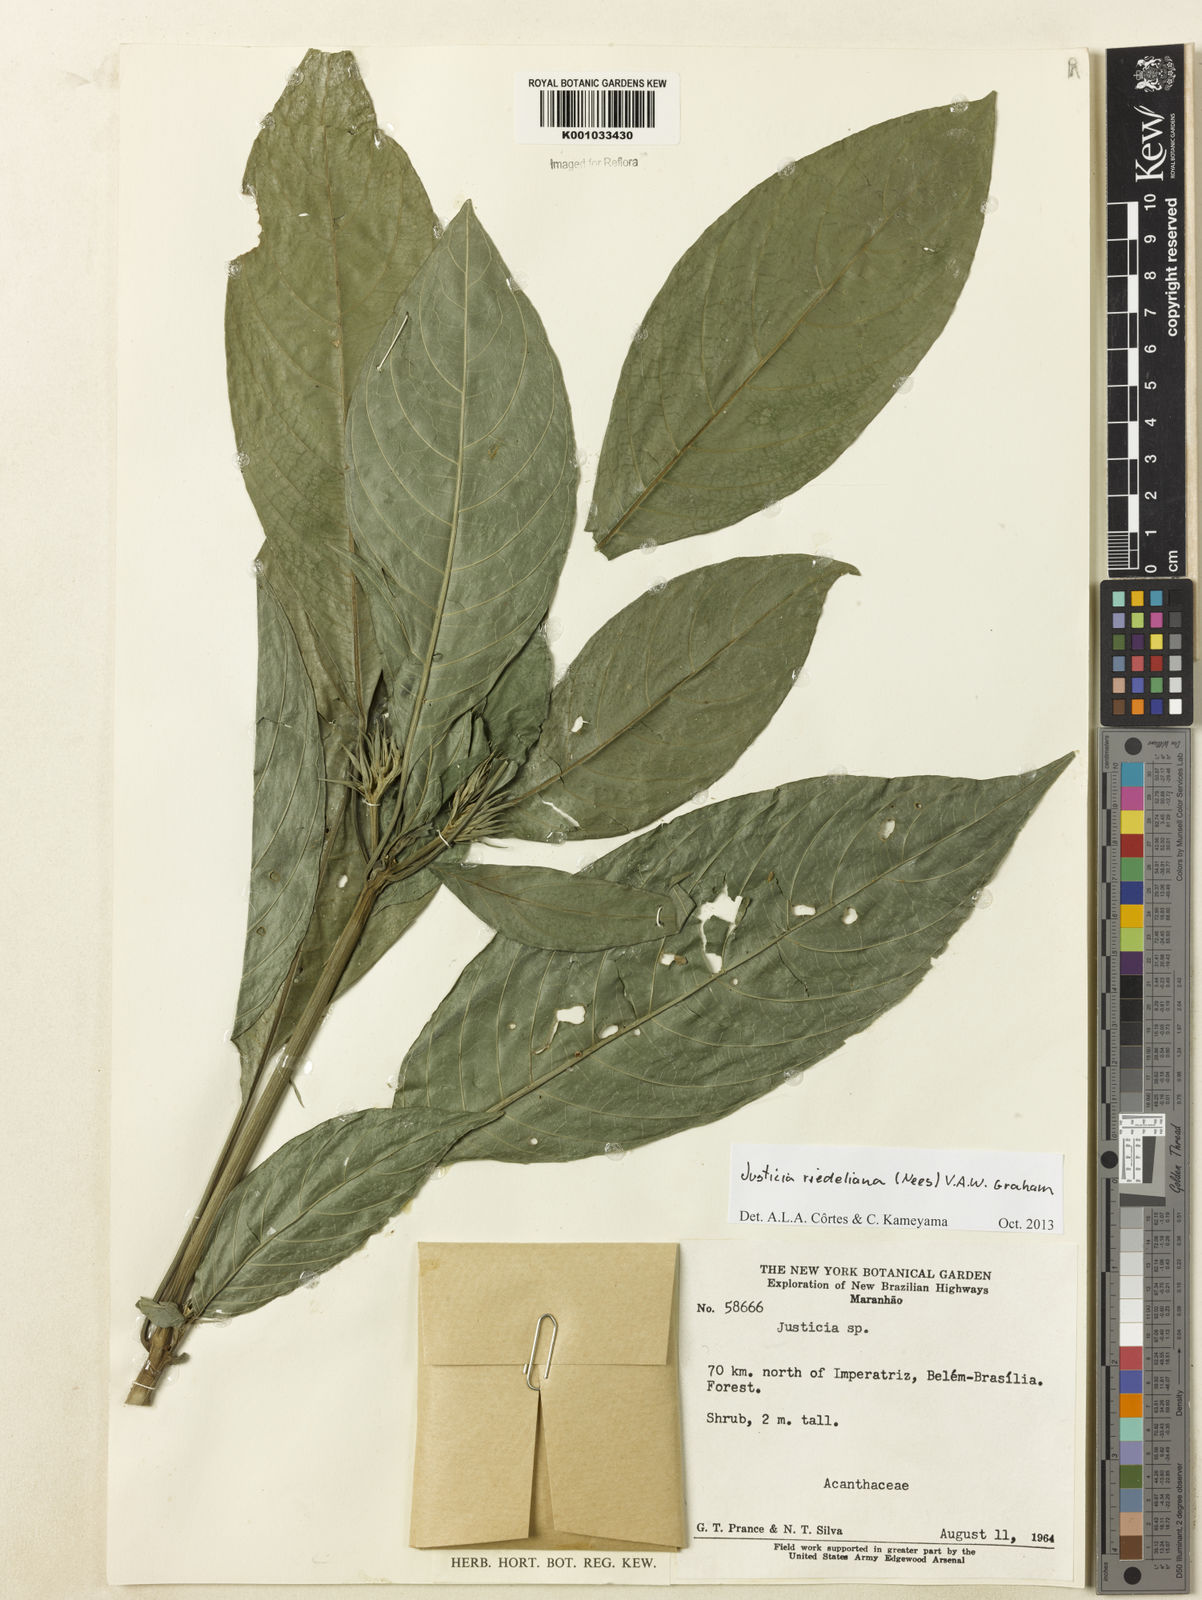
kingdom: Plantae
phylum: Tracheophyta
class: Magnoliopsida
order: Lamiales
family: Acanthaceae
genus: Justicia
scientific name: Justicia riedeliana
